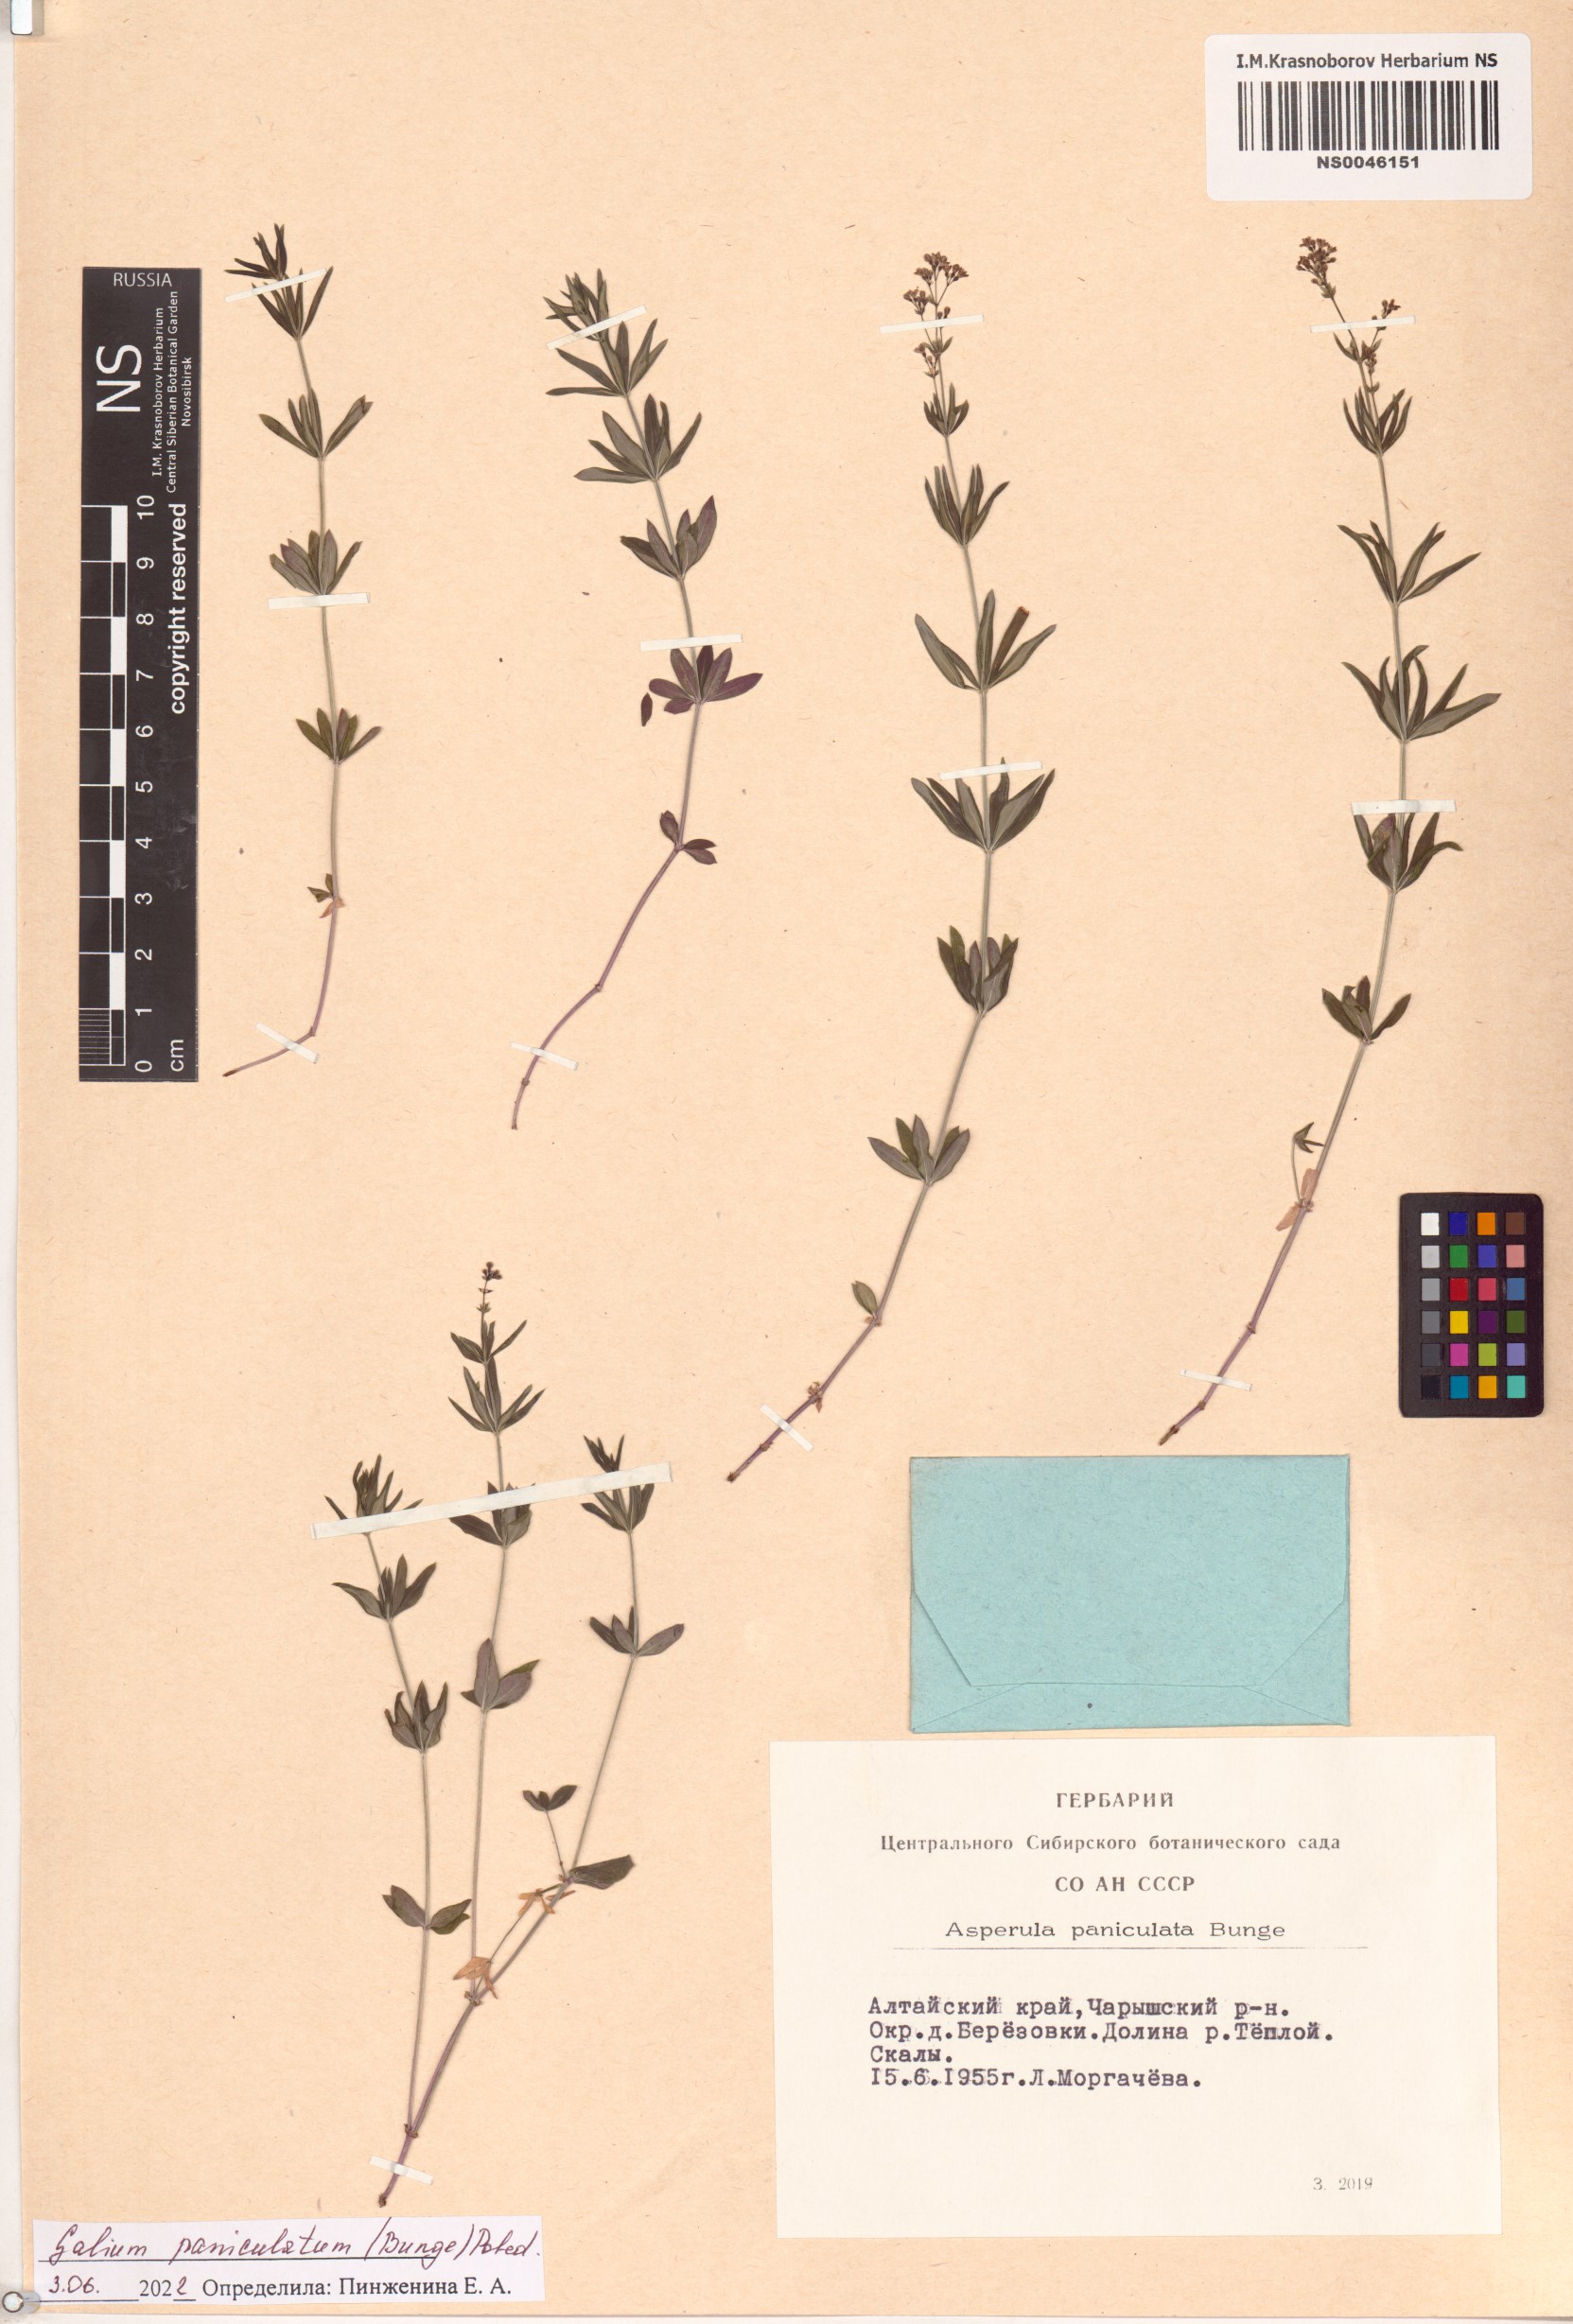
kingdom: Plantae
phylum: Tracheophyta
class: Magnoliopsida
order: Gentianales
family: Rubiaceae
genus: Galium
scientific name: Galium paniculatum
